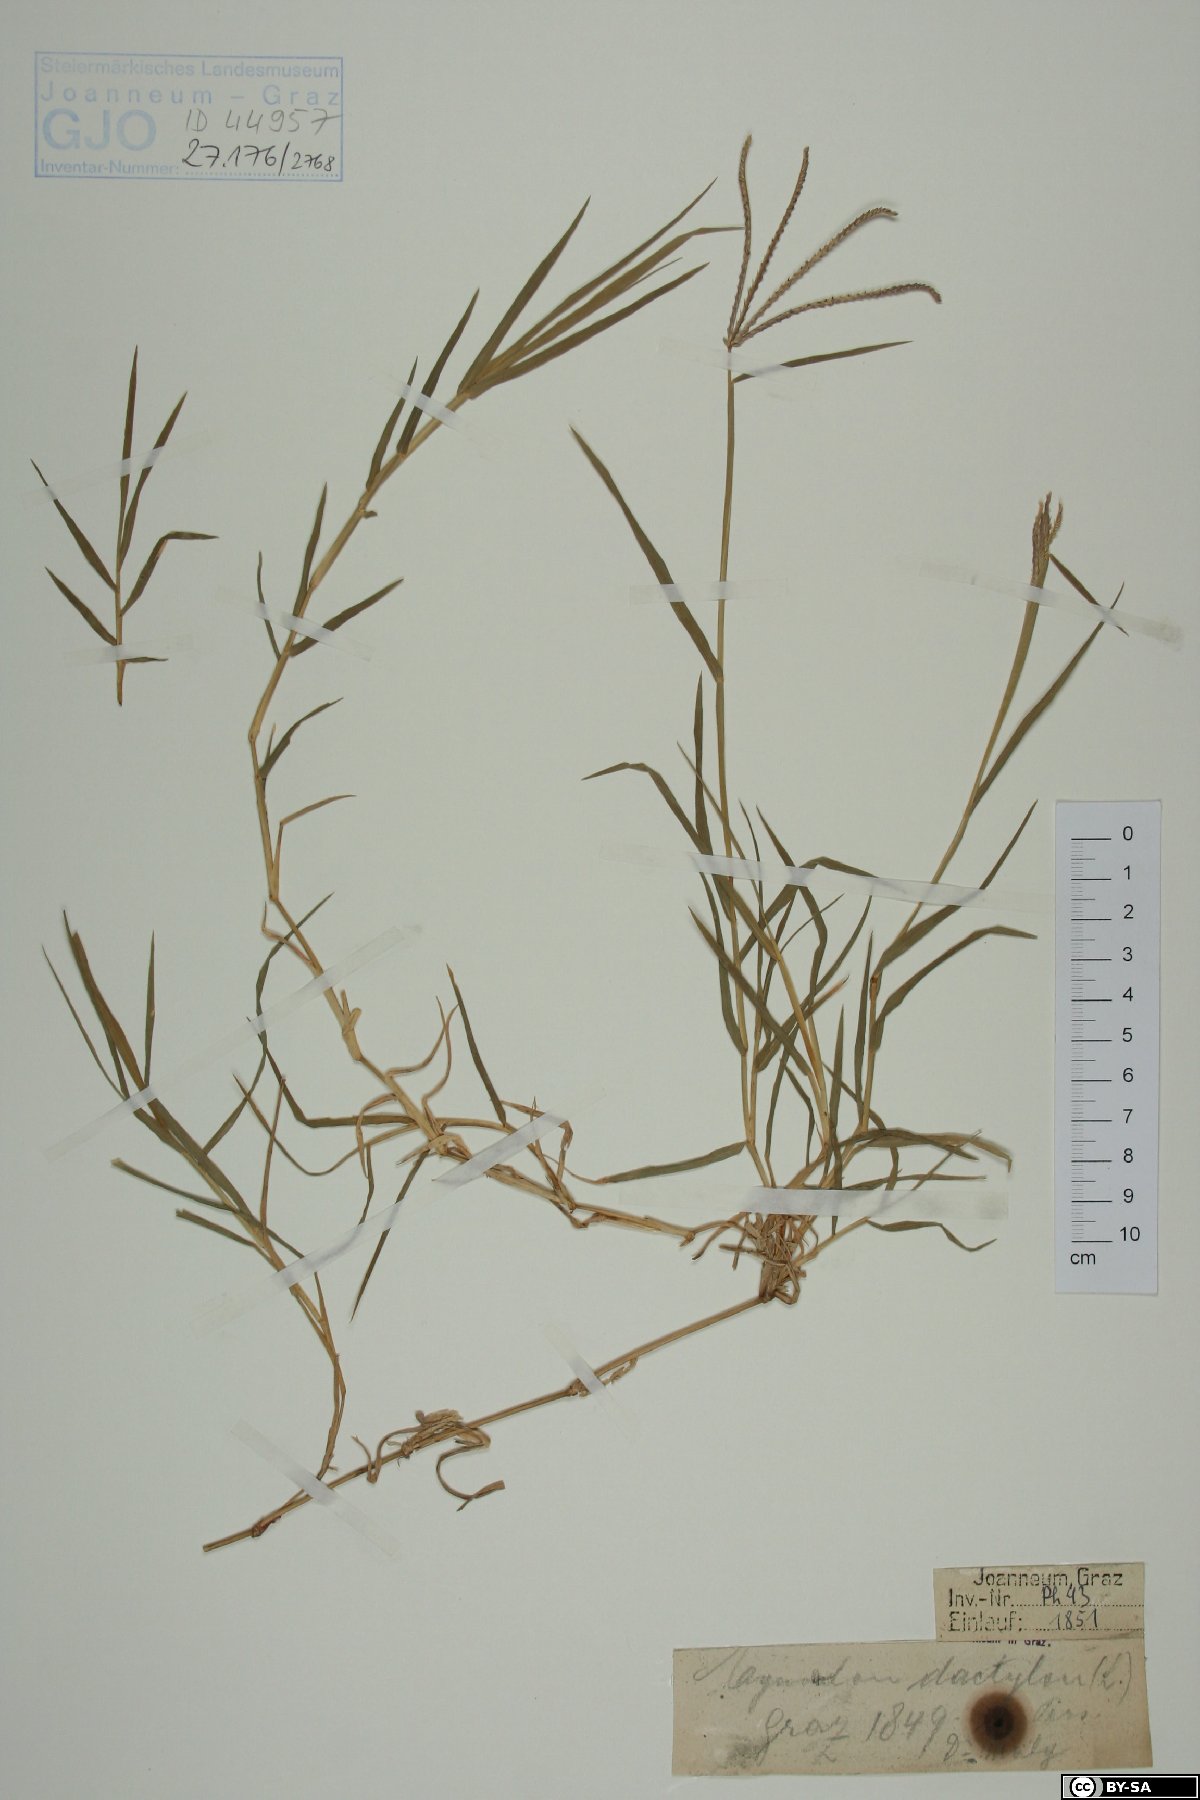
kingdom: Plantae
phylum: Tracheophyta
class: Liliopsida
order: Poales
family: Poaceae
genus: Cynodon
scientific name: Cynodon dactylon
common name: Bermuda grass
